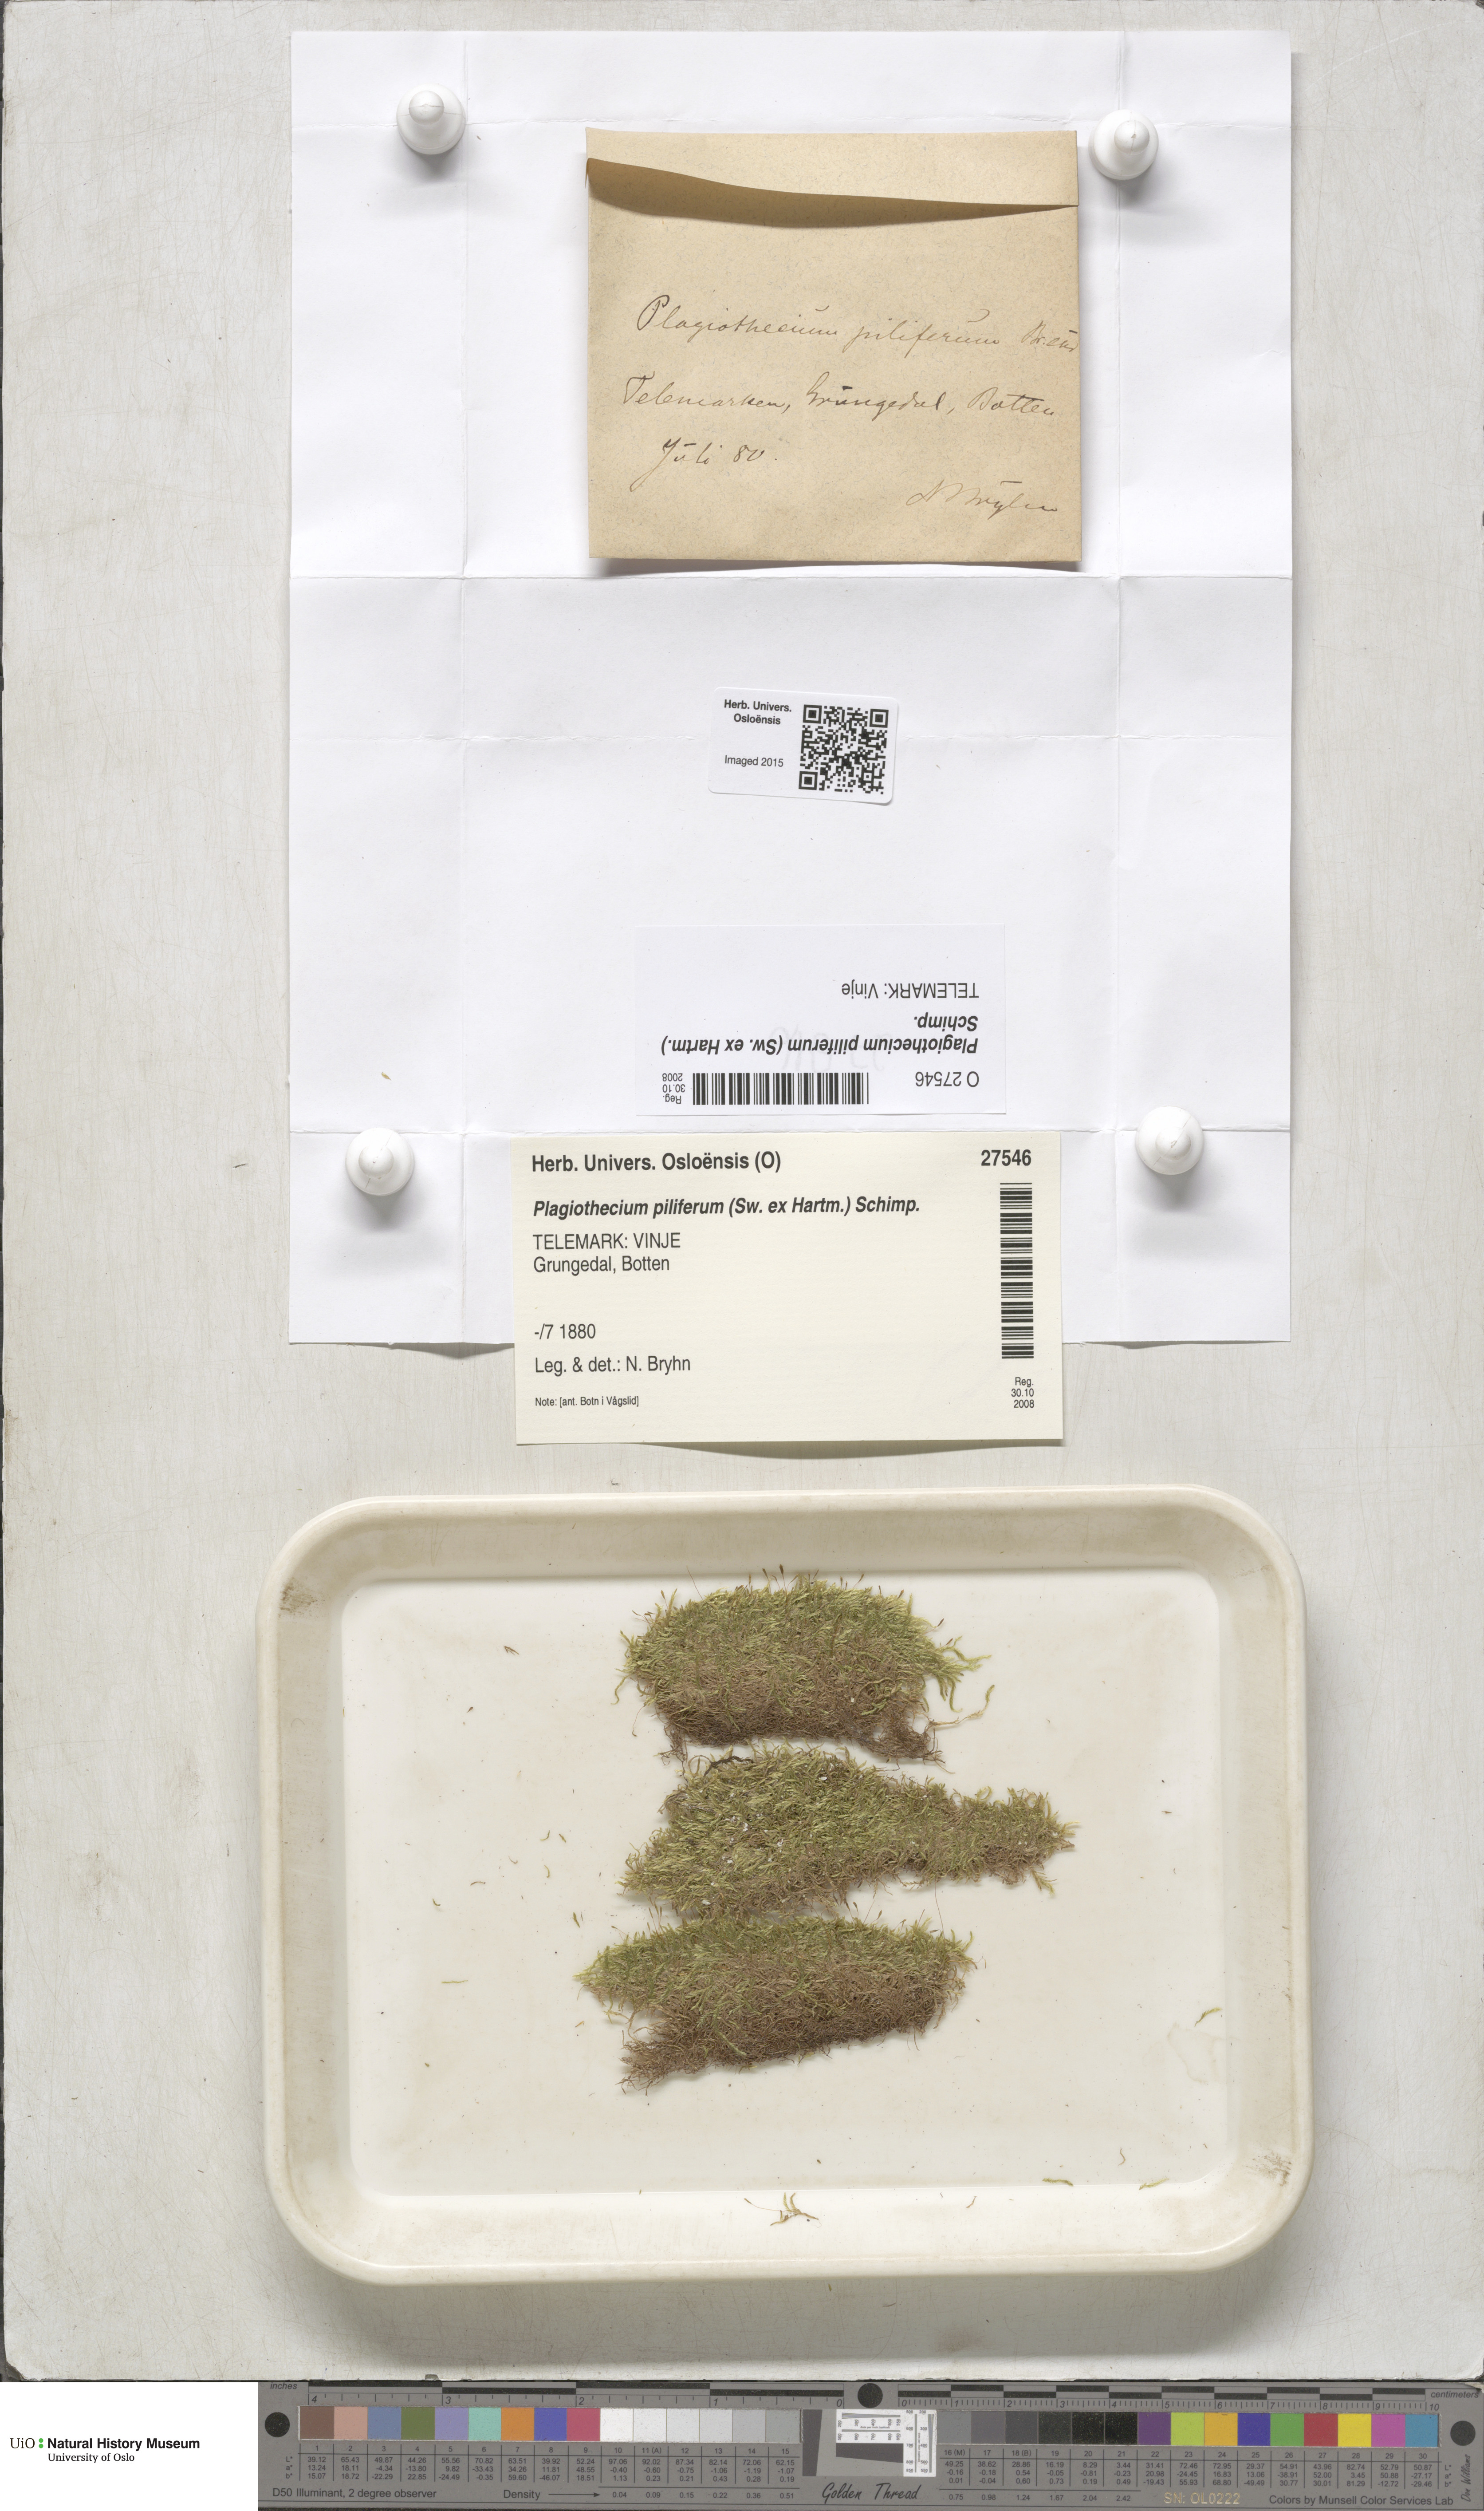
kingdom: Plantae
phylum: Bryophyta
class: Bryopsida
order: Hypnales
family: Plagiotheciaceae
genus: Rectithecium
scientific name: Rectithecium piliferum
